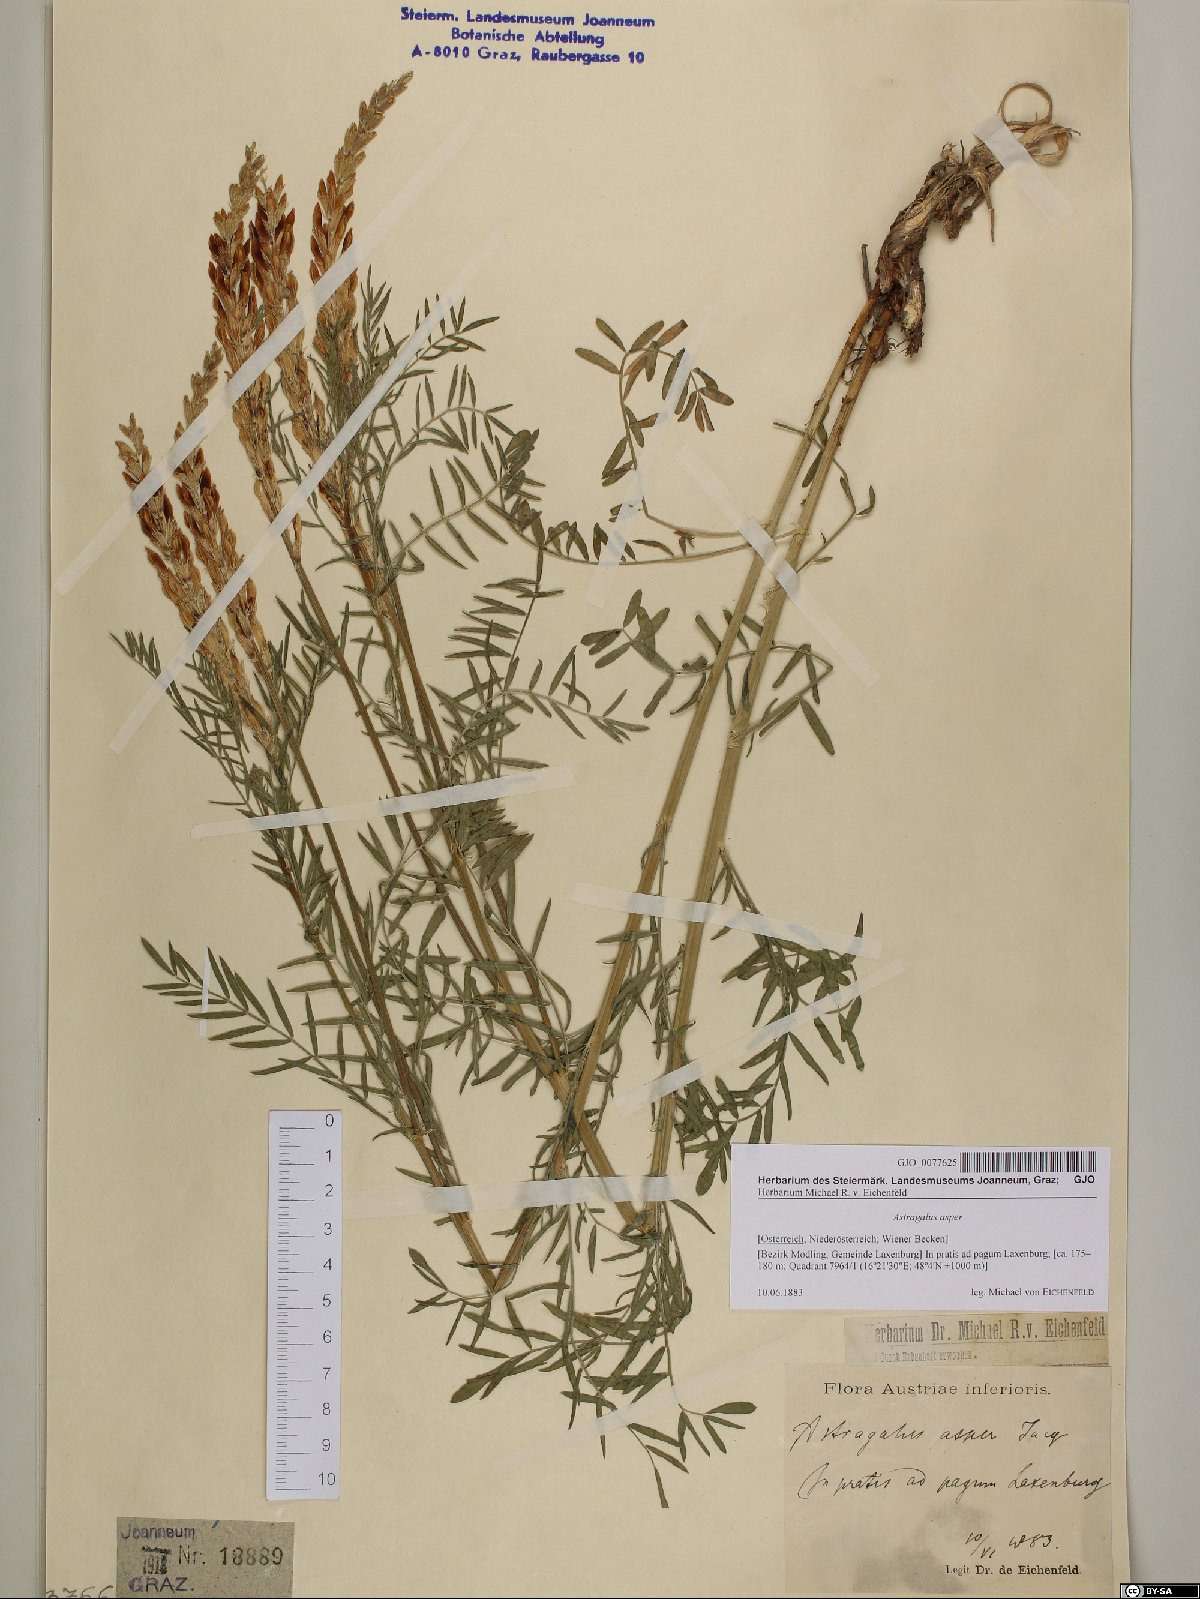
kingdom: Plantae
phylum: Tracheophyta
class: Magnoliopsida
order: Fabales
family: Fabaceae
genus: Astragalus
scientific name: Astragalus asper
